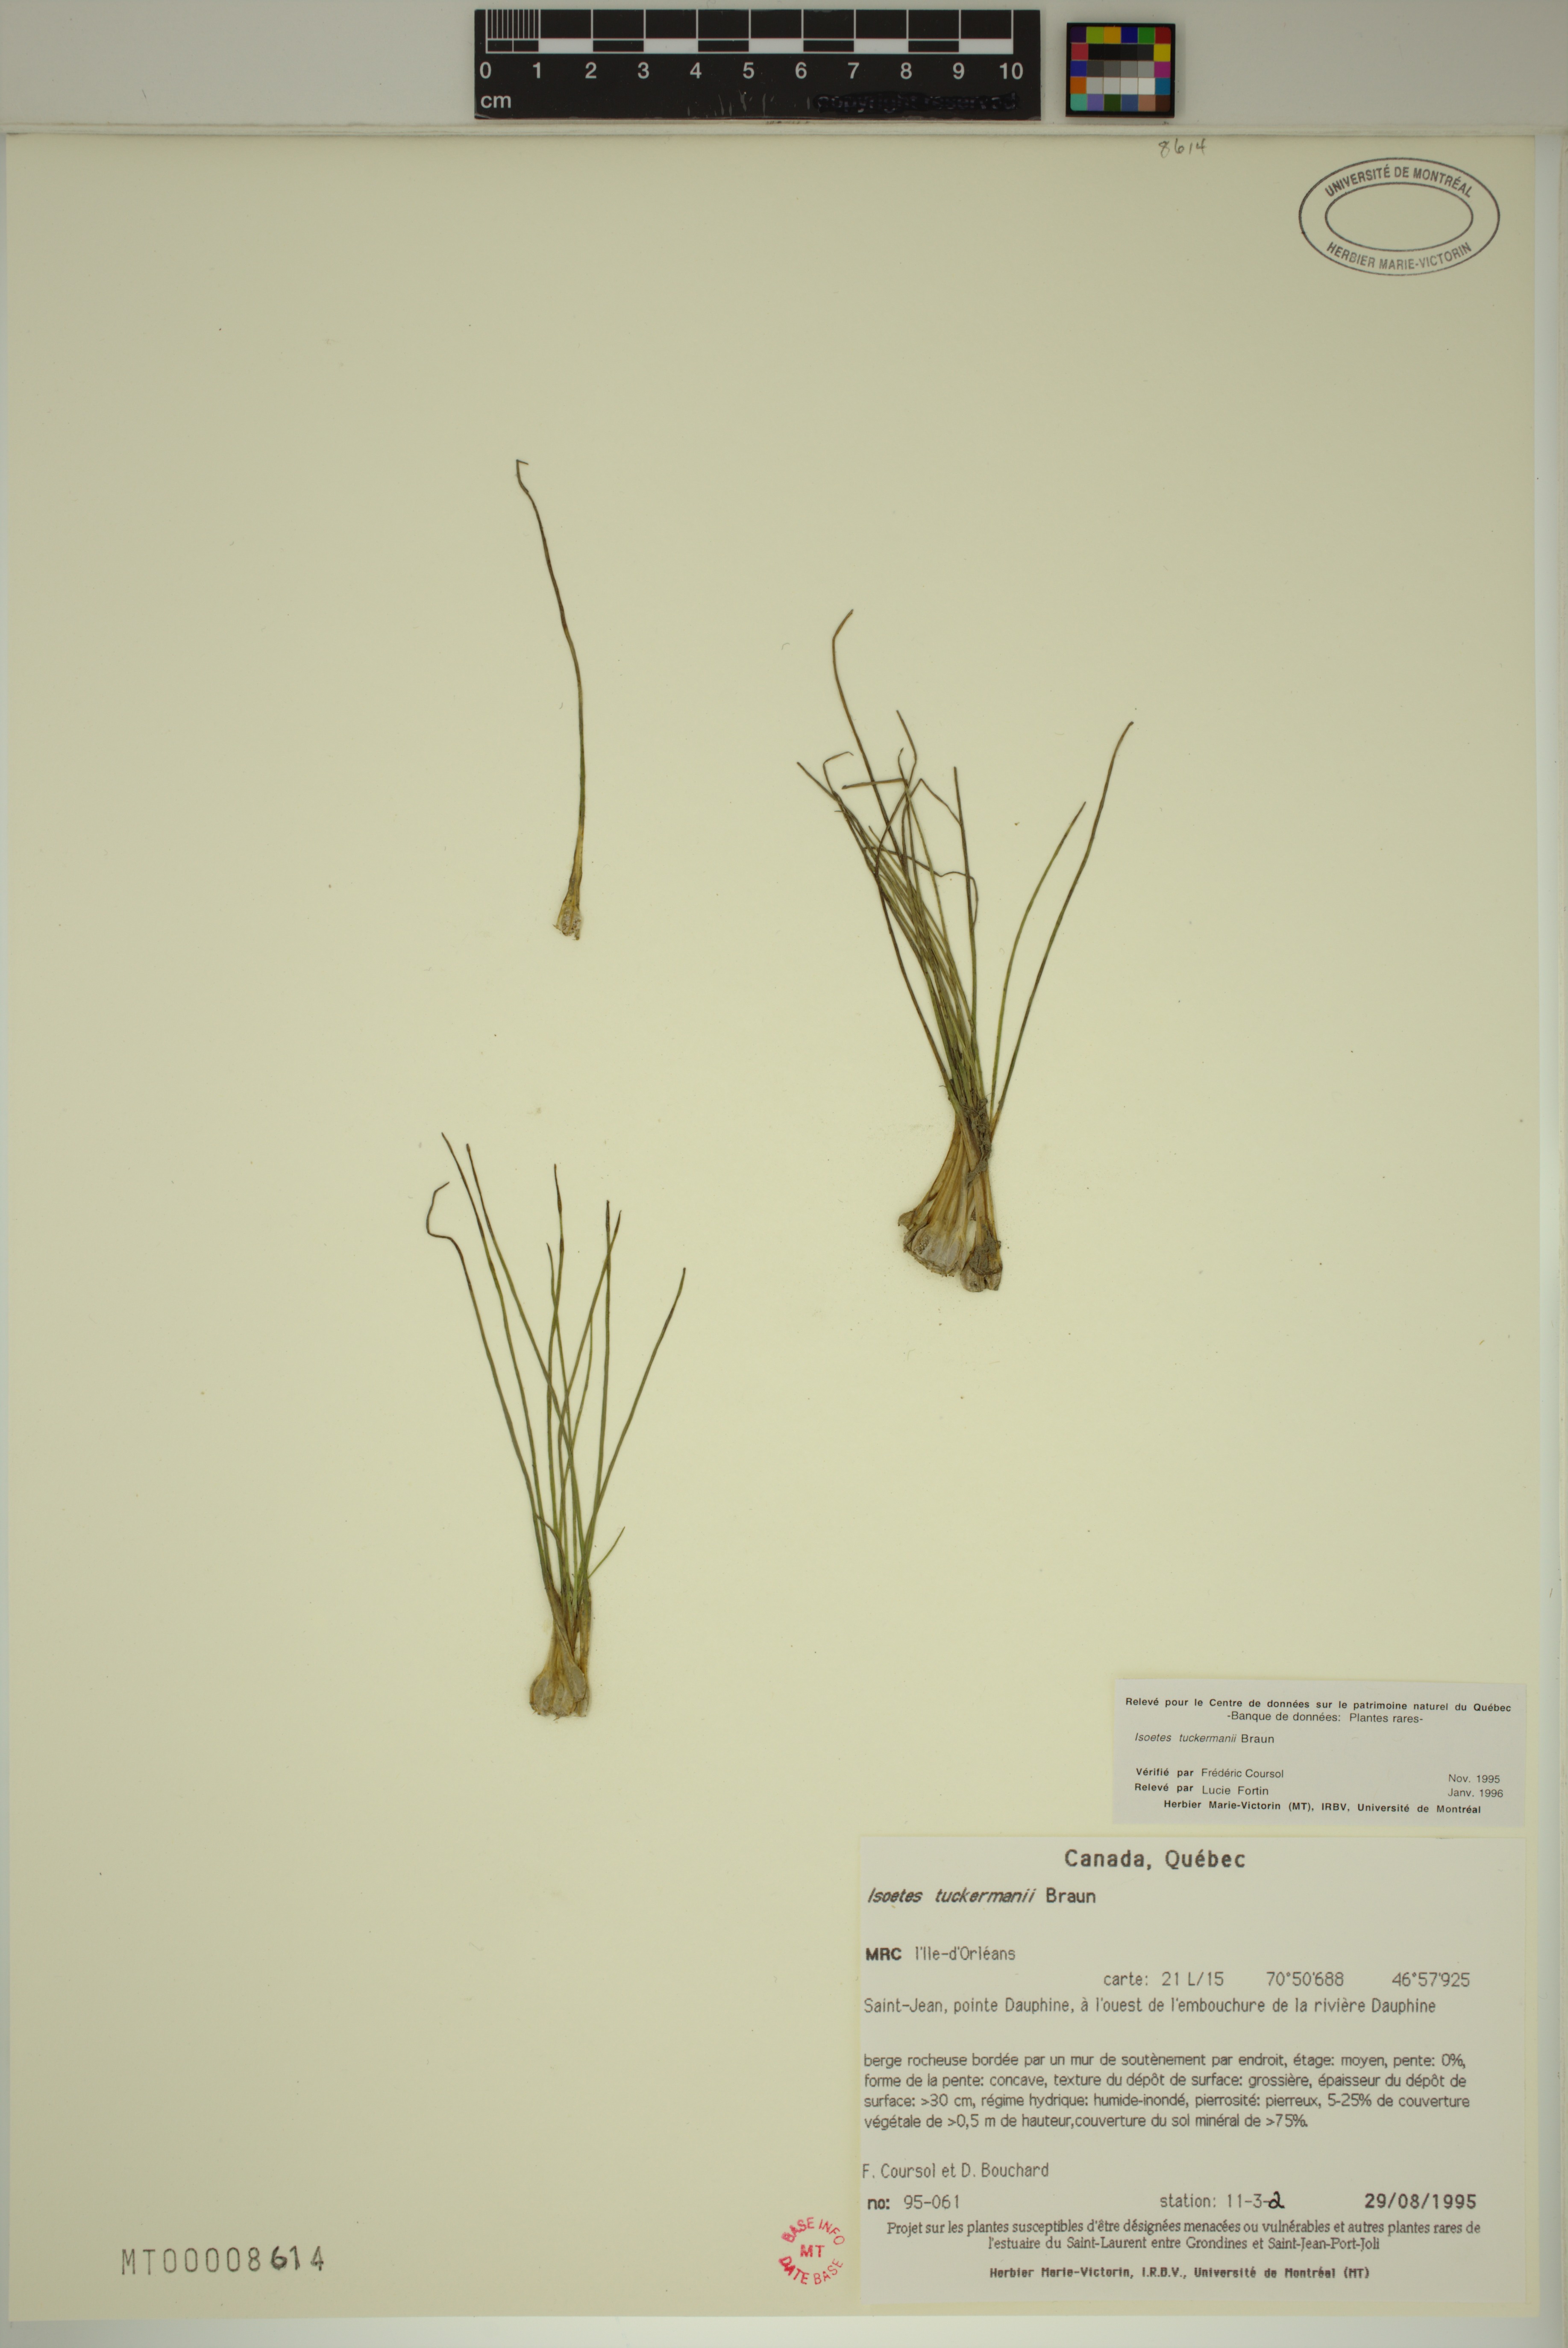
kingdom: Plantae
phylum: Tracheophyta
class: Lycopodiopsida
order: Isoetales
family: Isoetaceae
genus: Isoetes
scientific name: Isoetes tuckermanii
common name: Tuckerman's quillwort
